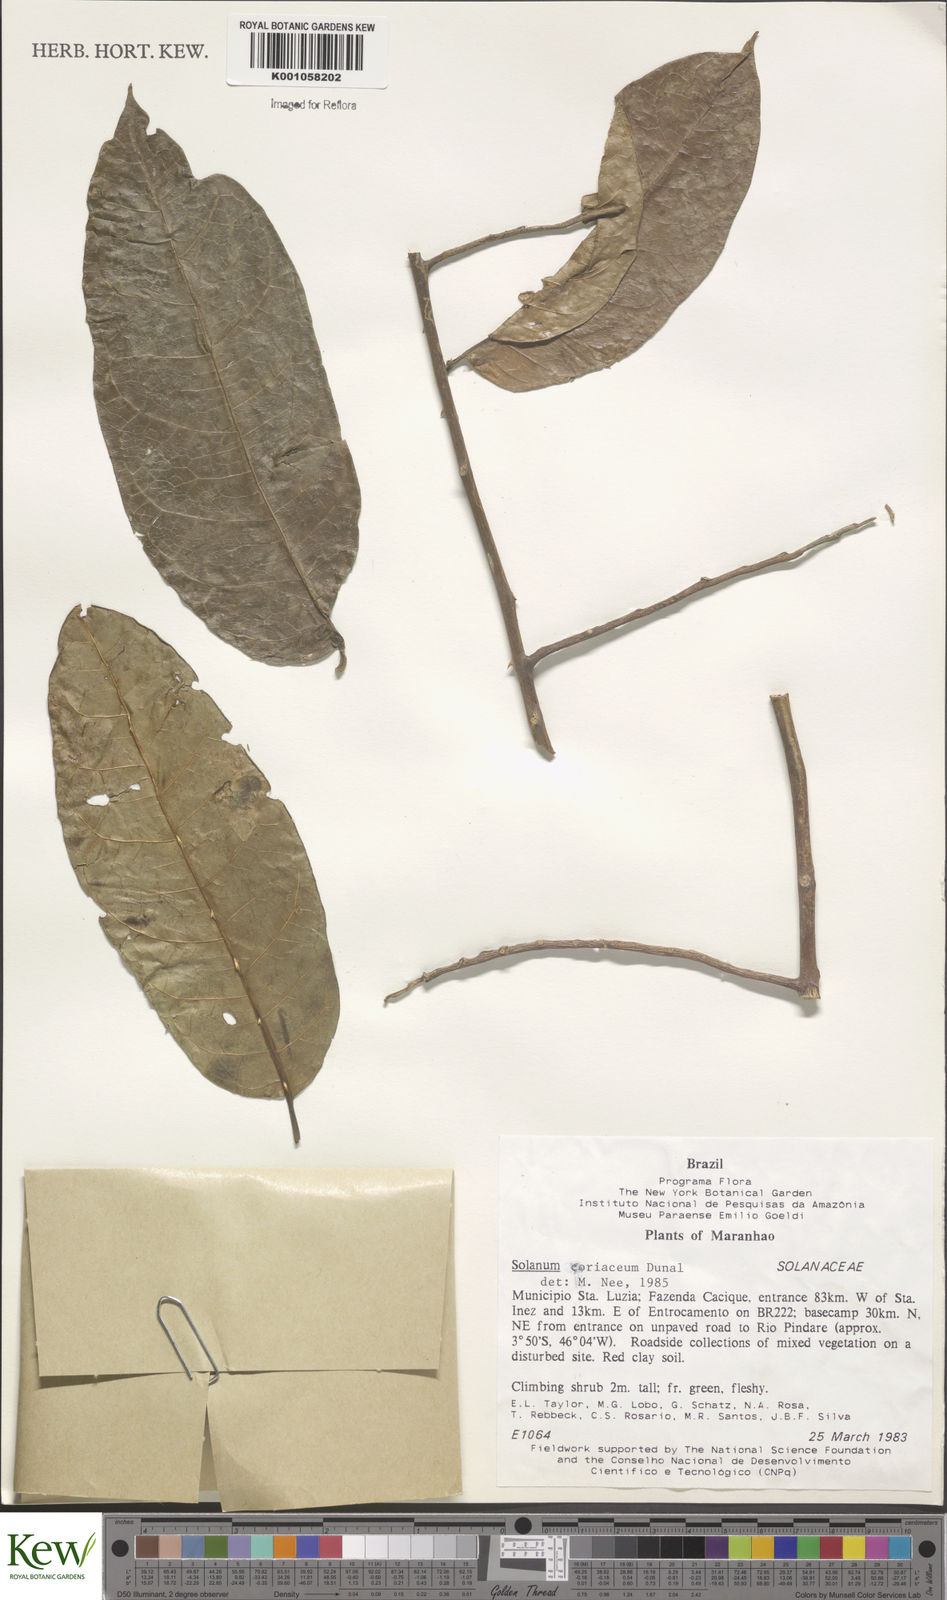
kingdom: Plantae
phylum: Tracheophyta
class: Magnoliopsida
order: Solanales
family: Solanaceae
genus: Solanum
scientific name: Solanum coriaceum
